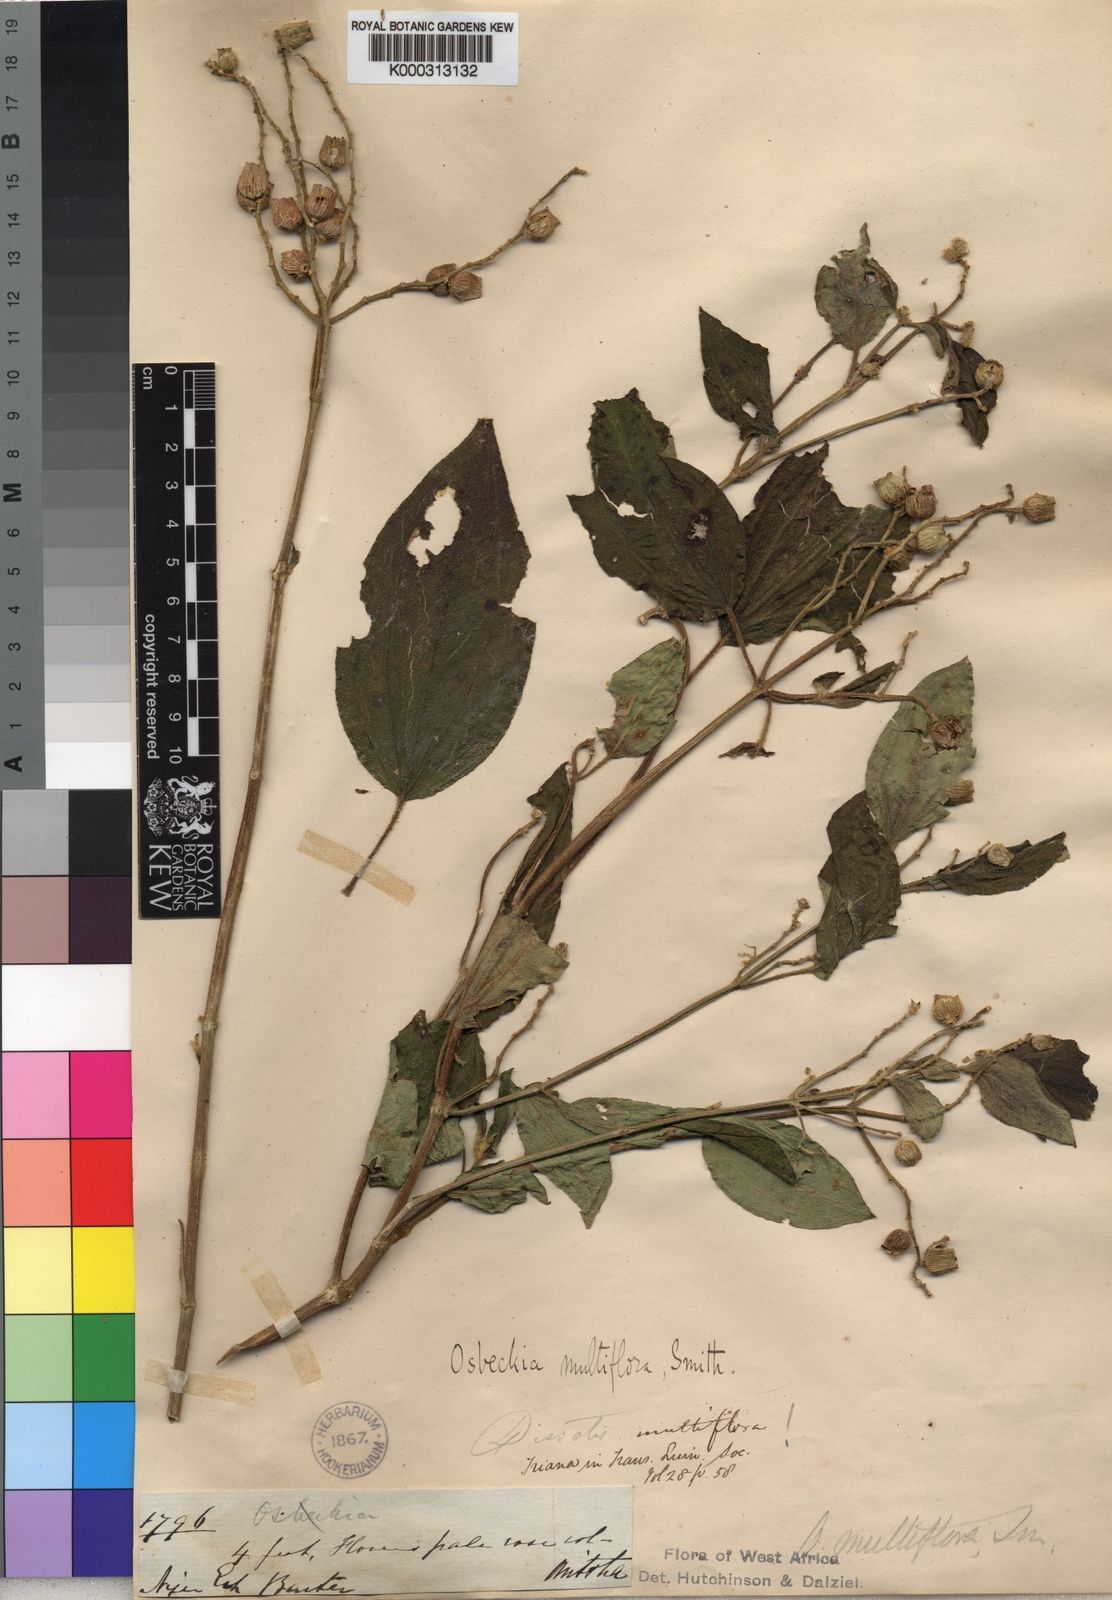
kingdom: Plantae
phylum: Tracheophyta
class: Magnoliopsida
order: Myrtales
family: Melastomataceae
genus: Dupineta
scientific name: Dupineta multiflora
